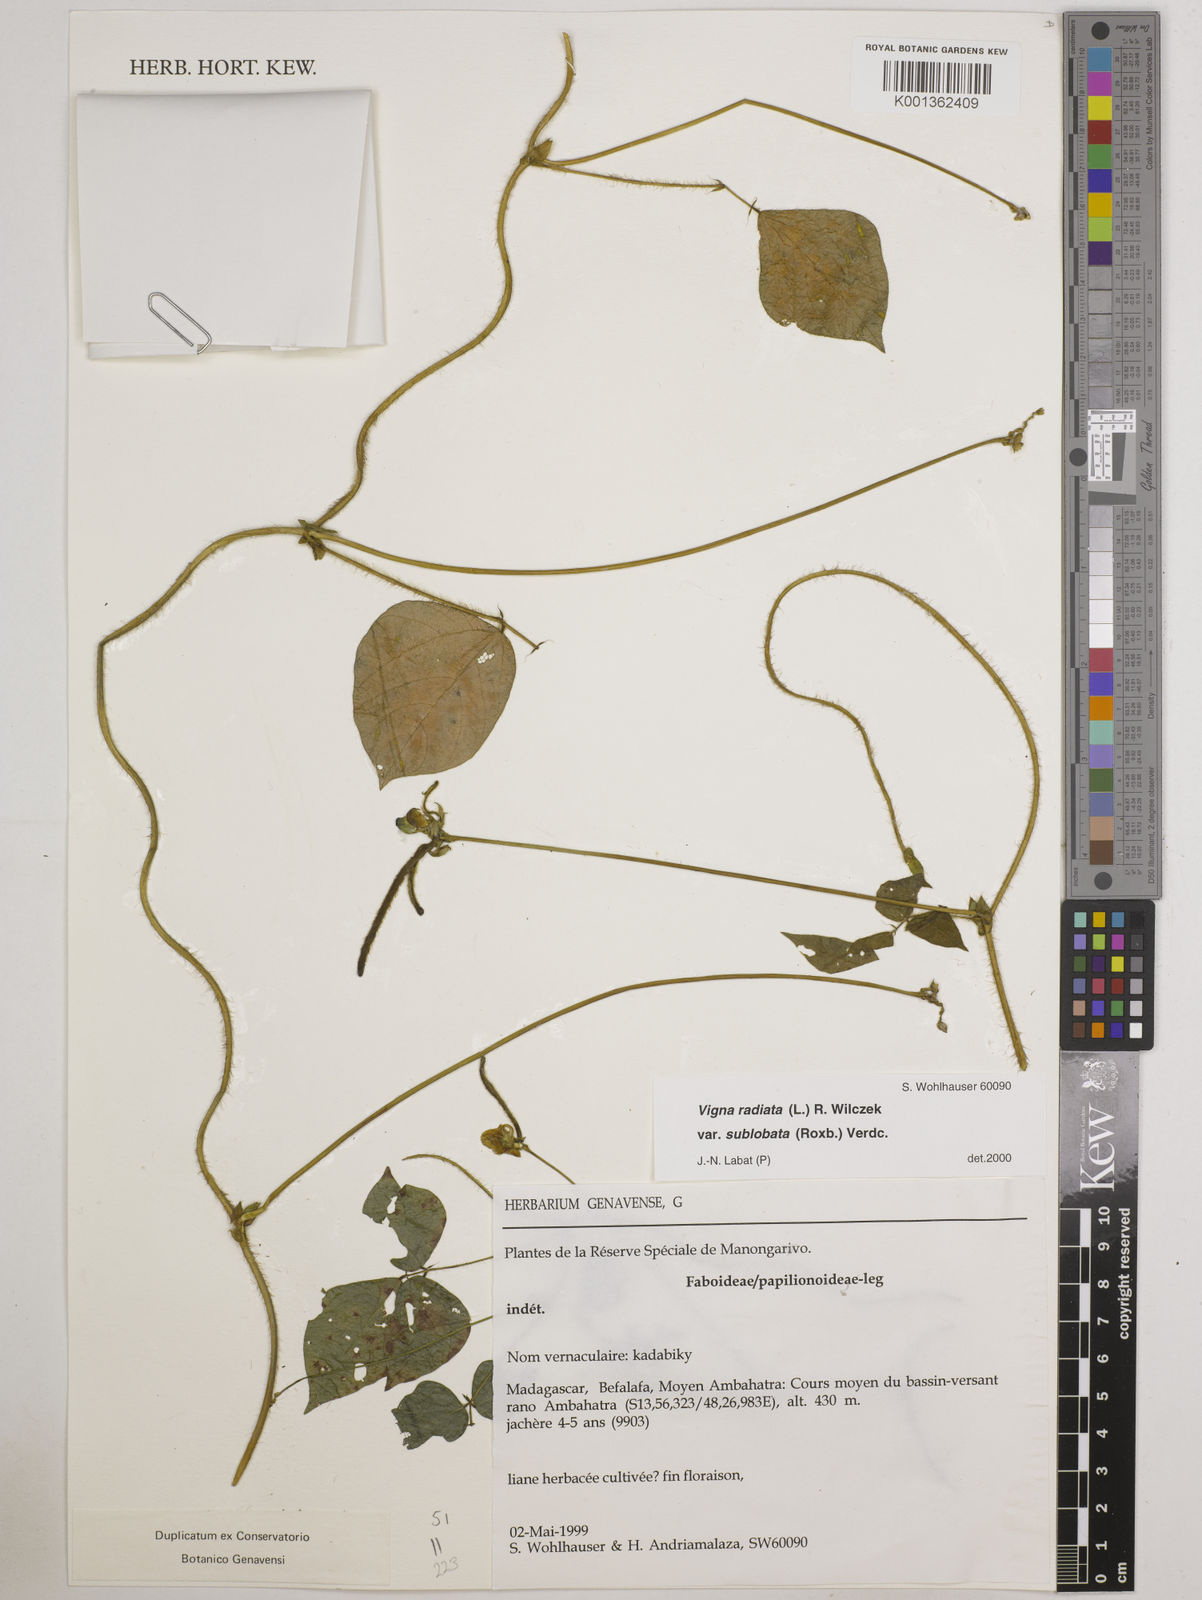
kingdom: Plantae
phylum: Tracheophyta
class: Magnoliopsida
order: Fabales
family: Fabaceae
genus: Vigna
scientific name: Vigna radiata
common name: Mung-bean
